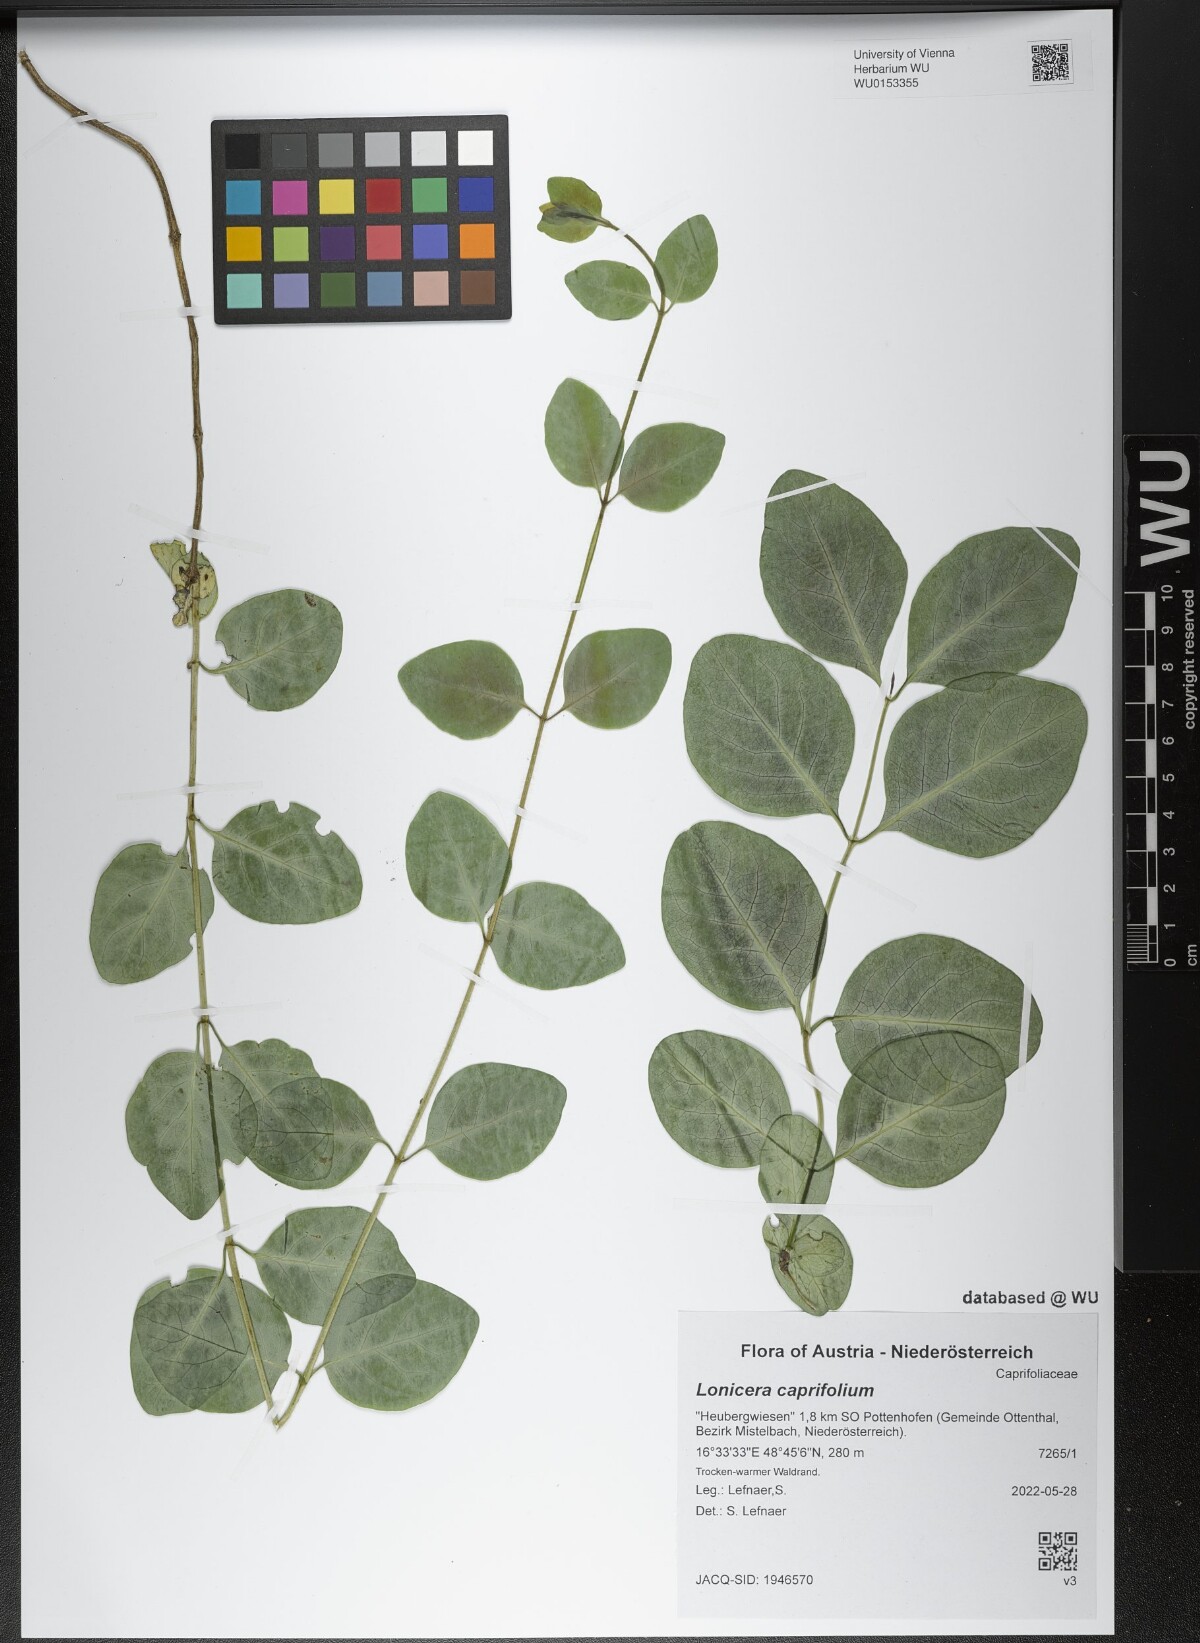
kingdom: Plantae
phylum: Tracheophyta
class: Magnoliopsida
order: Dipsacales
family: Caprifoliaceae
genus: Lonicera
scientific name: Lonicera caprifolium
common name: Perfoliate honeysuckle
